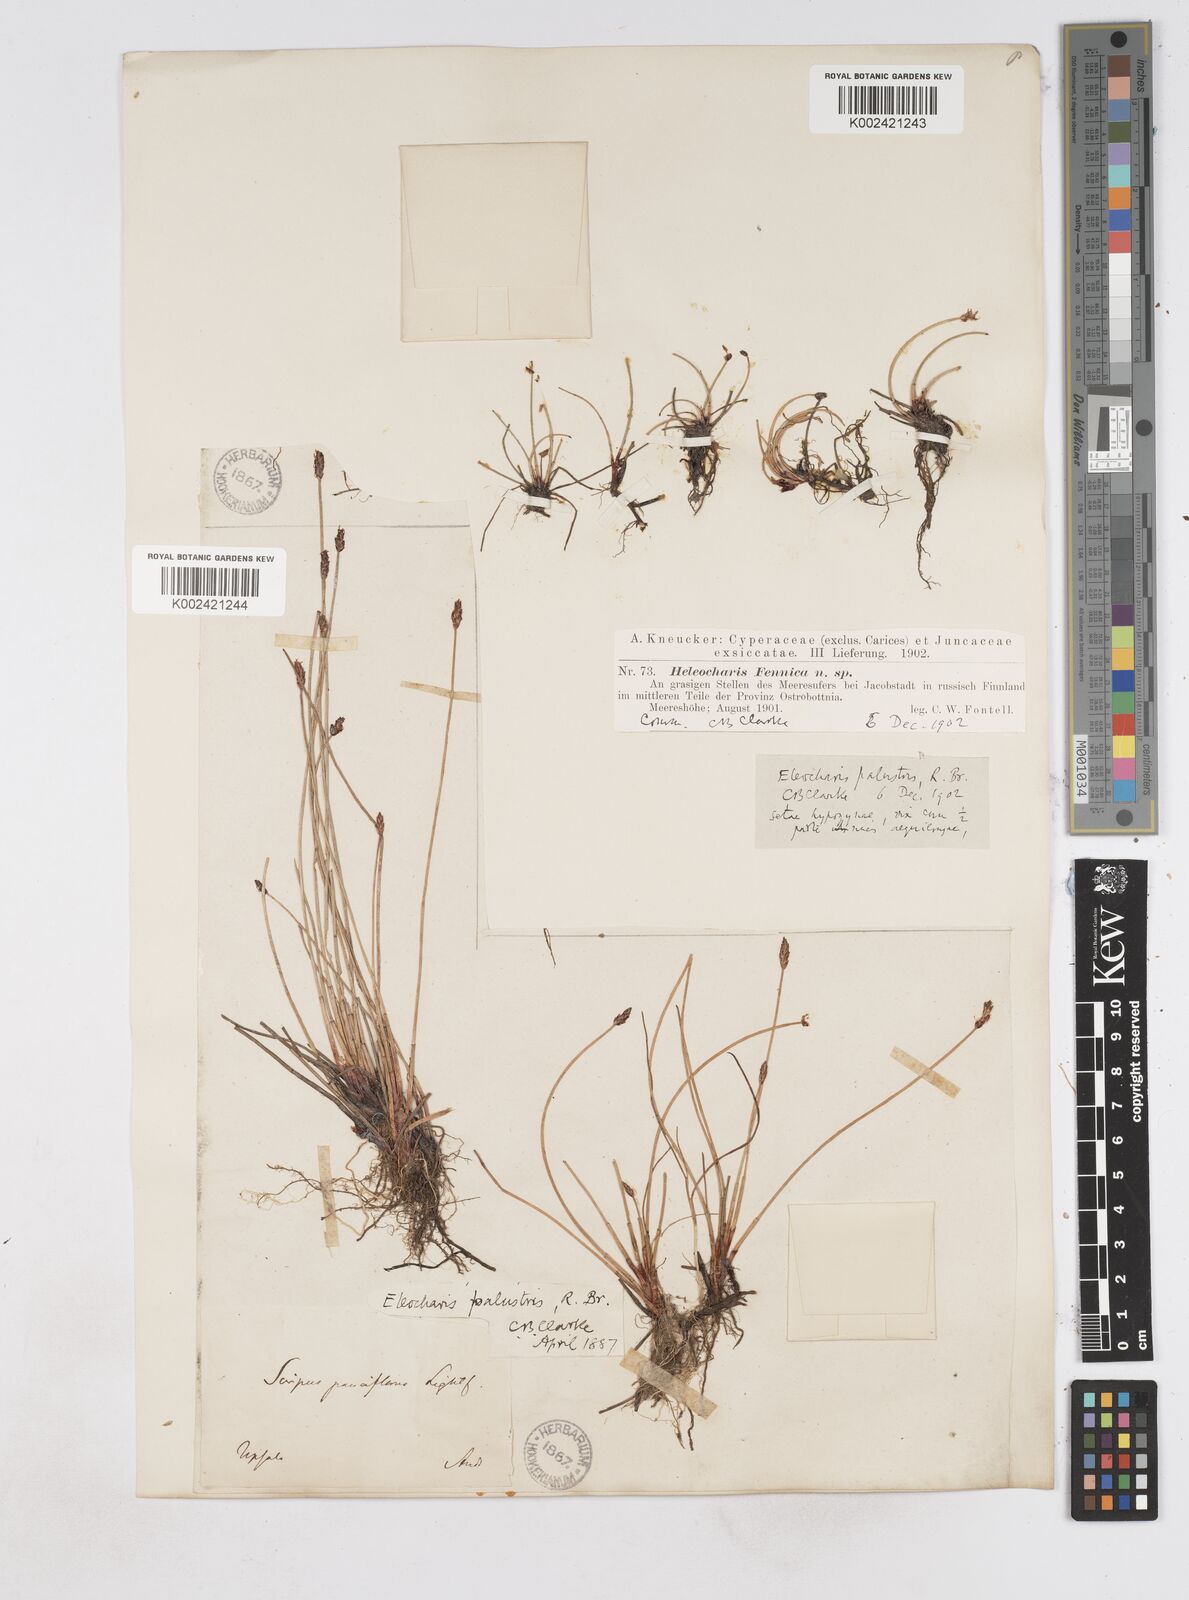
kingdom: Plantae
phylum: Tracheophyta
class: Liliopsida
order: Poales
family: Cyperaceae
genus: Eleocharis
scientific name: Eleocharis palustris
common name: Common spike-rush
